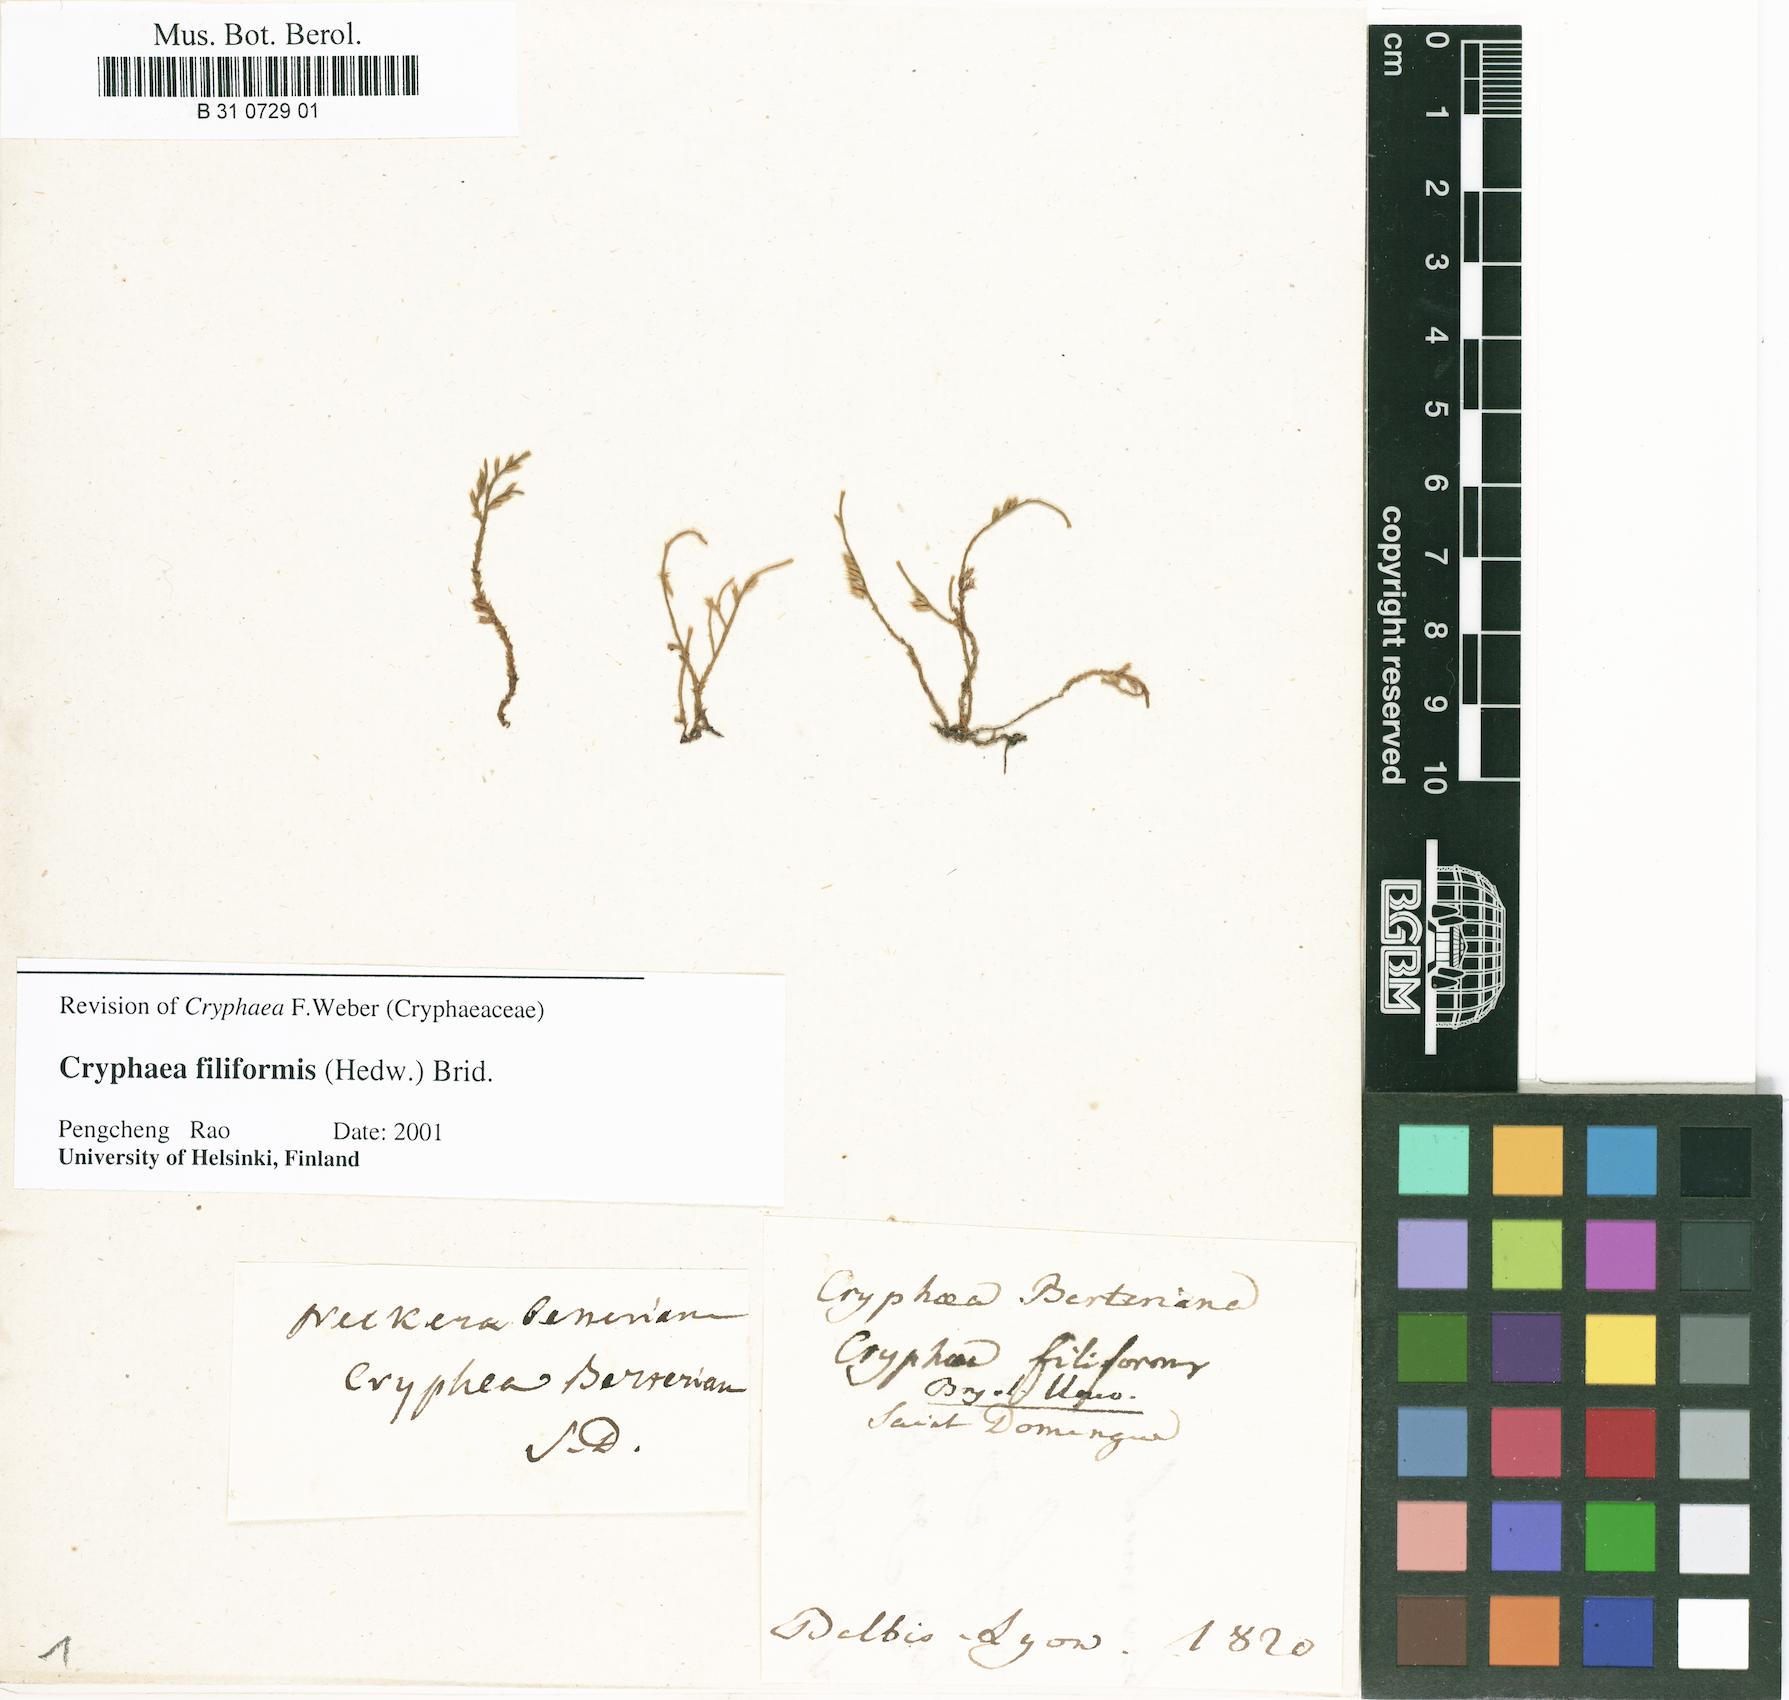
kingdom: Plantae
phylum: Bryophyta
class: Bryopsida
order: Hypnales
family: Cryphaeaceae
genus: Cryphaea
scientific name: Cryphaea filiformis
